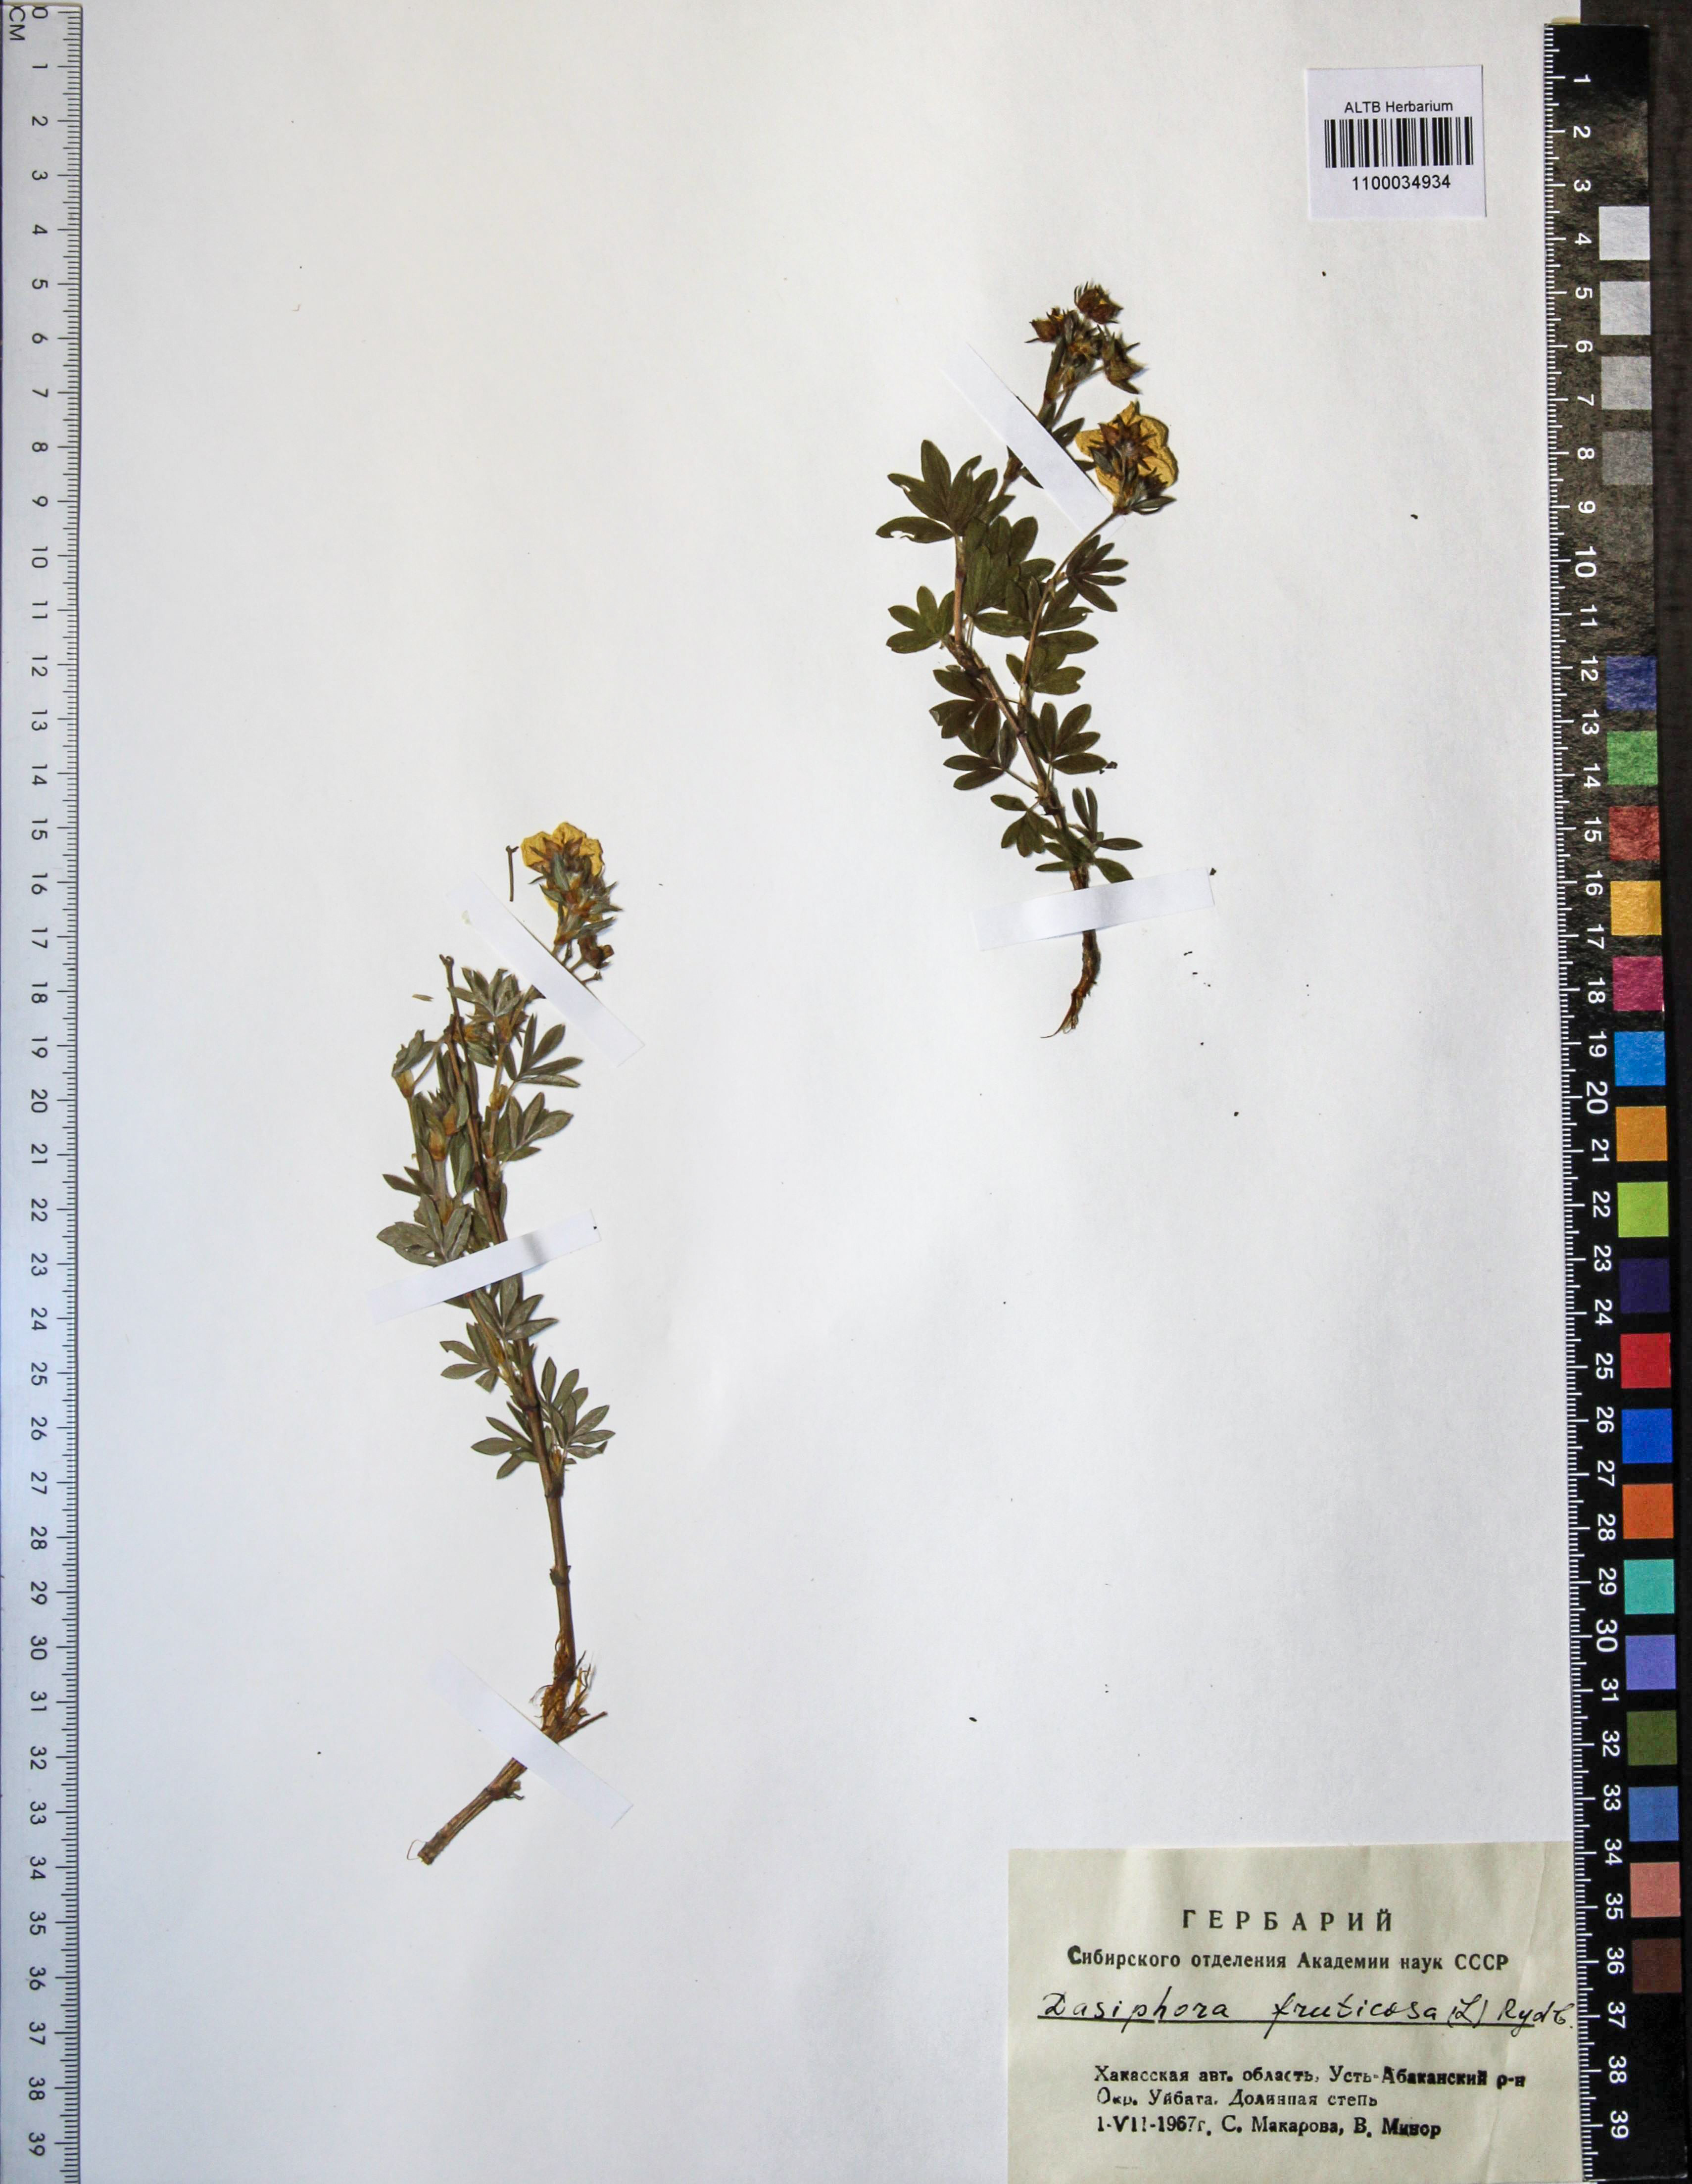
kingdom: Plantae
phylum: Tracheophyta
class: Magnoliopsida
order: Rosales
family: Rosaceae
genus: Dasiphora
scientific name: Dasiphora fruticosa
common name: Shrubby cinquefoil
